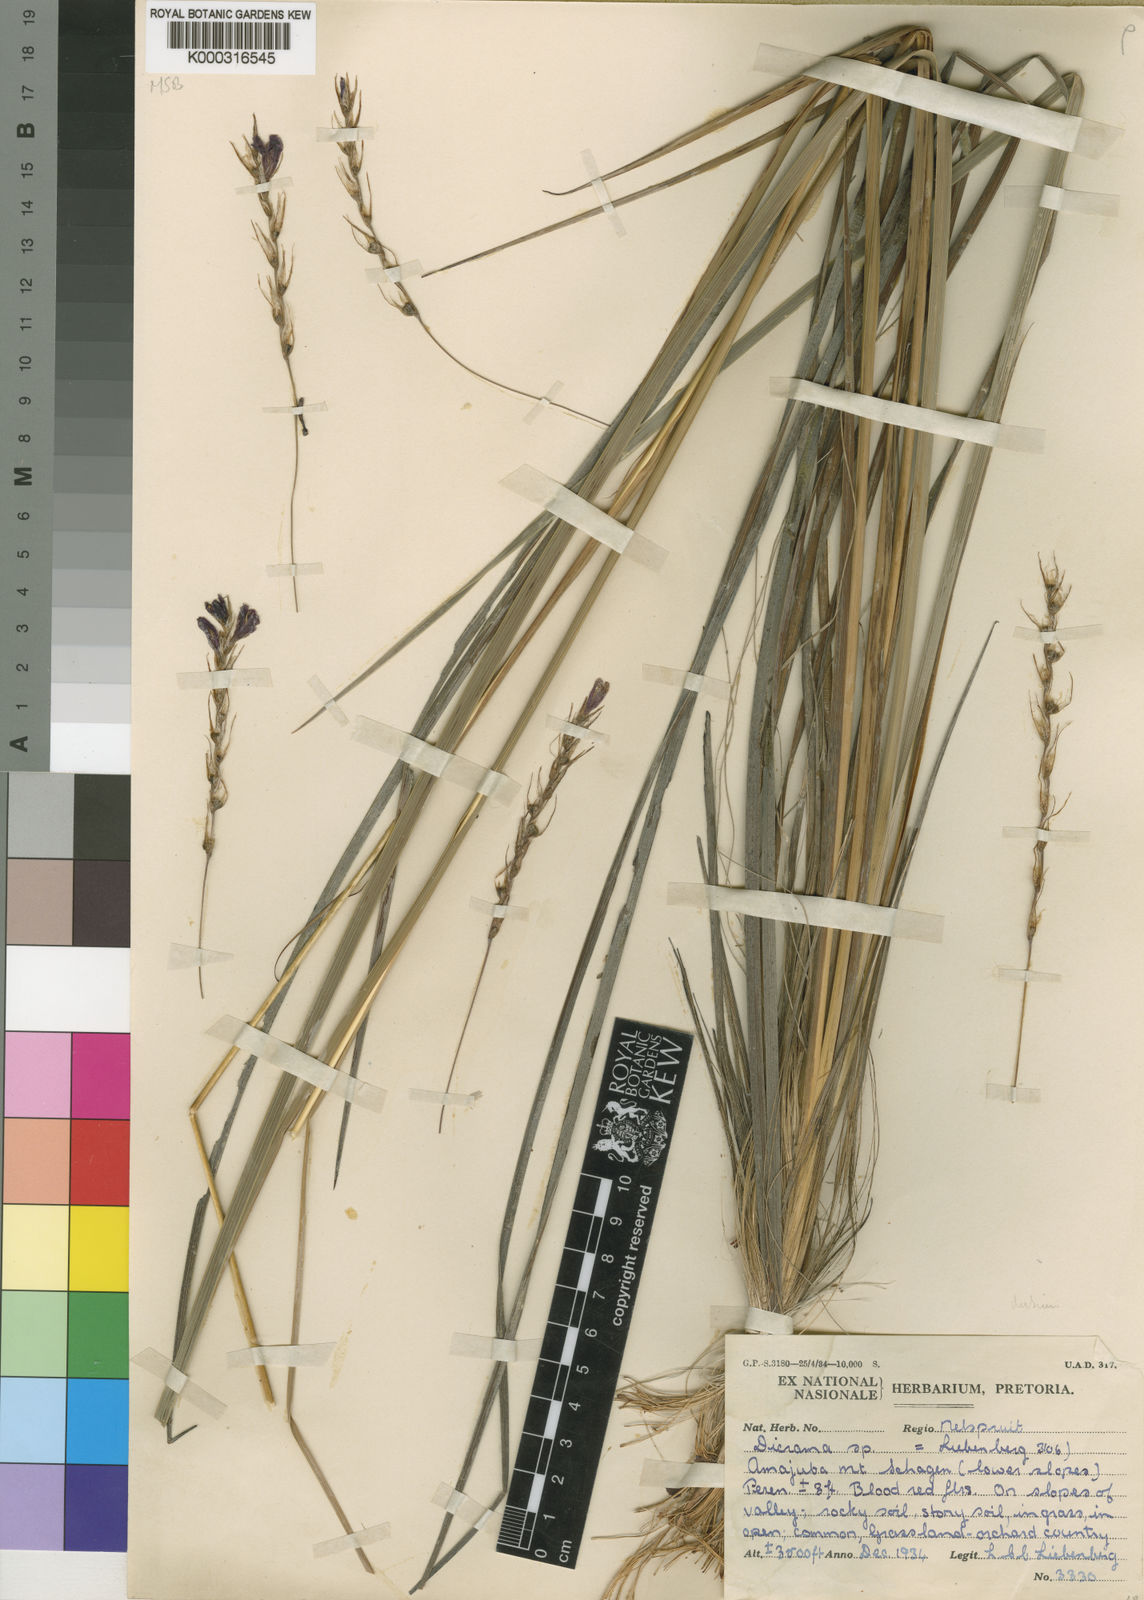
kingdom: Plantae
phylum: Tracheophyta
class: Liliopsida
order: Asparagales
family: Iridaceae
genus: Dierama
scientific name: Dierama dubium
